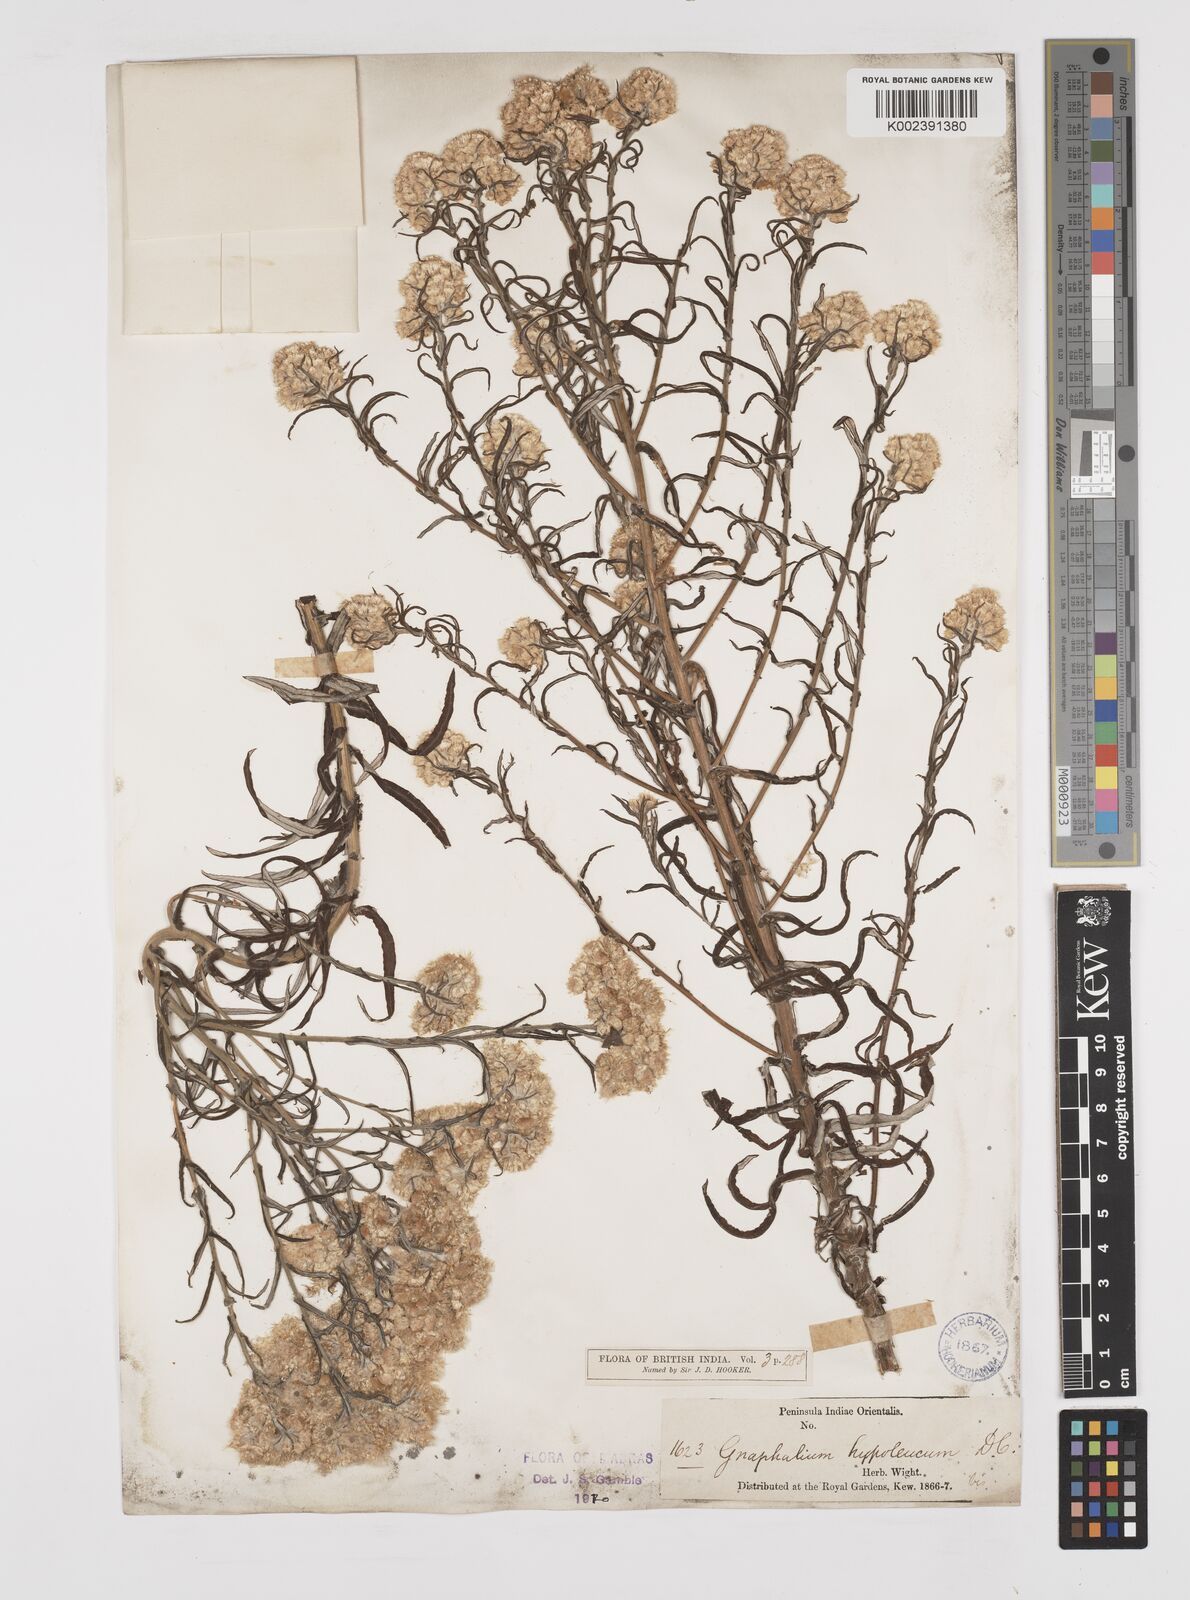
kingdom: Plantae
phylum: Tracheophyta
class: Magnoliopsida
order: Asterales
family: Asteraceae
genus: Pseudognaphalium
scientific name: Pseudognaphalium hypoleucum
